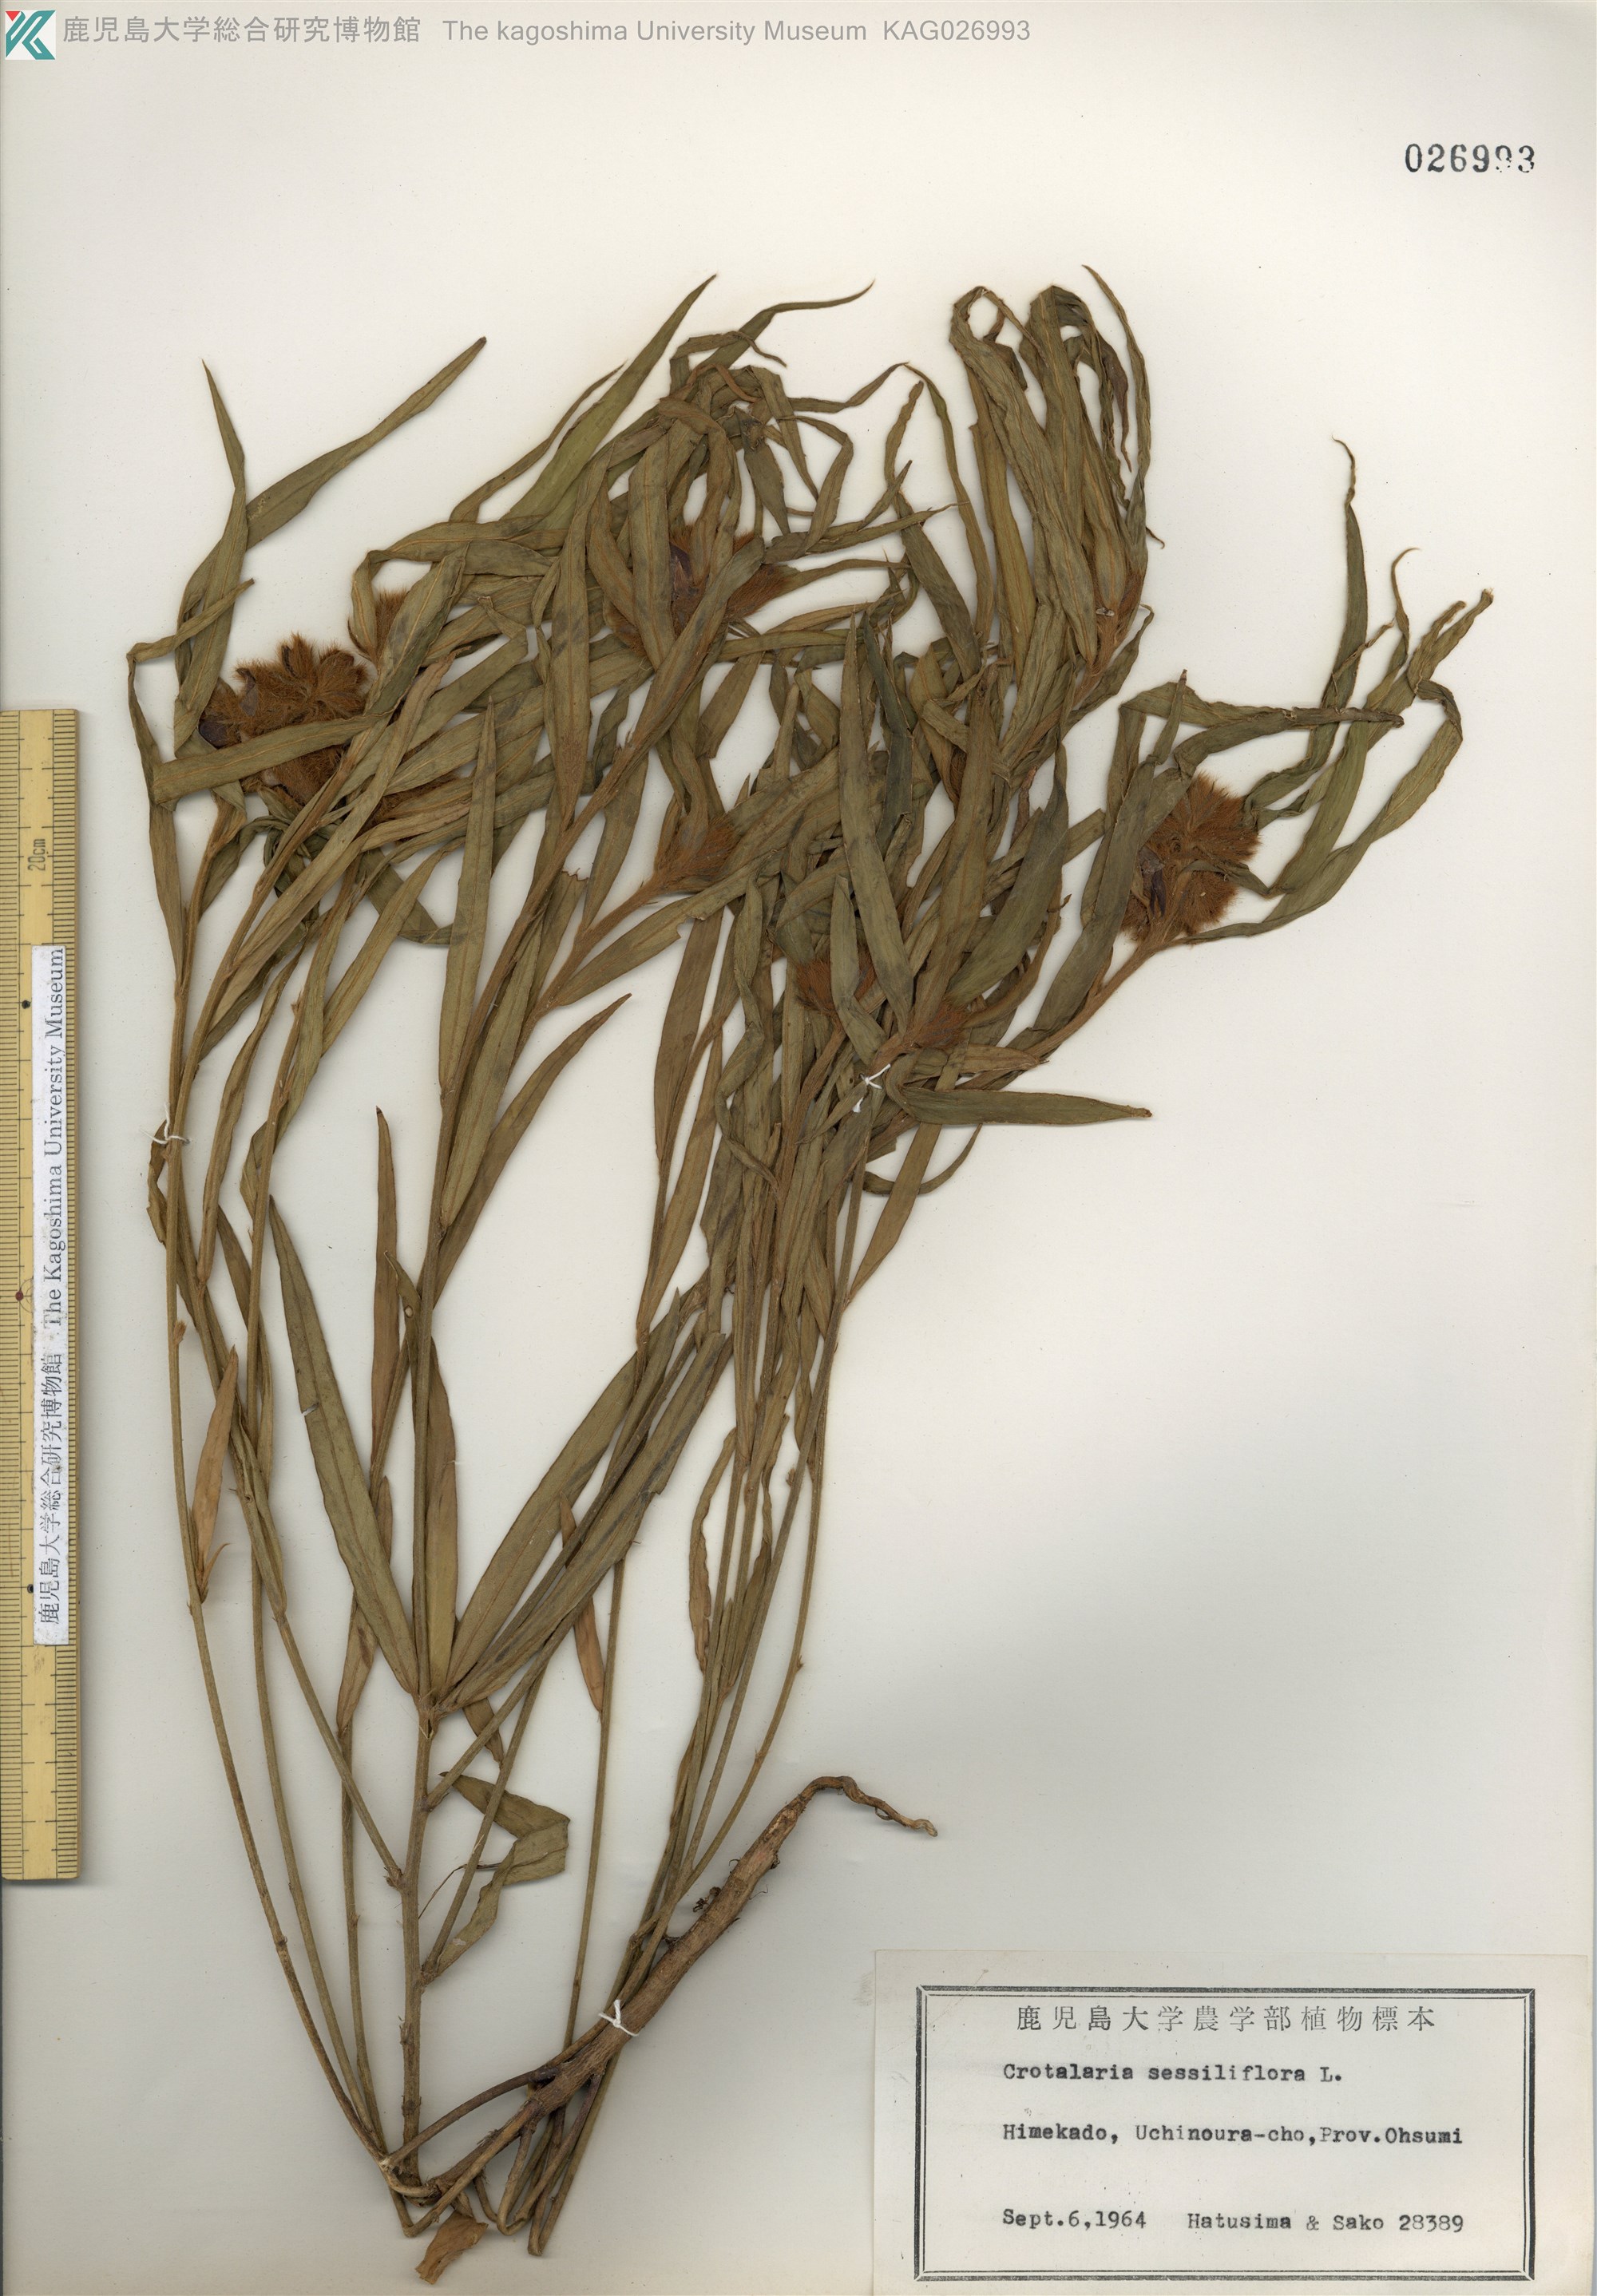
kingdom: Plantae
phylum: Tracheophyta
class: Magnoliopsida
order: Fabales
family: Fabaceae
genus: Crotalaria
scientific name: Crotalaria sessiliflora
